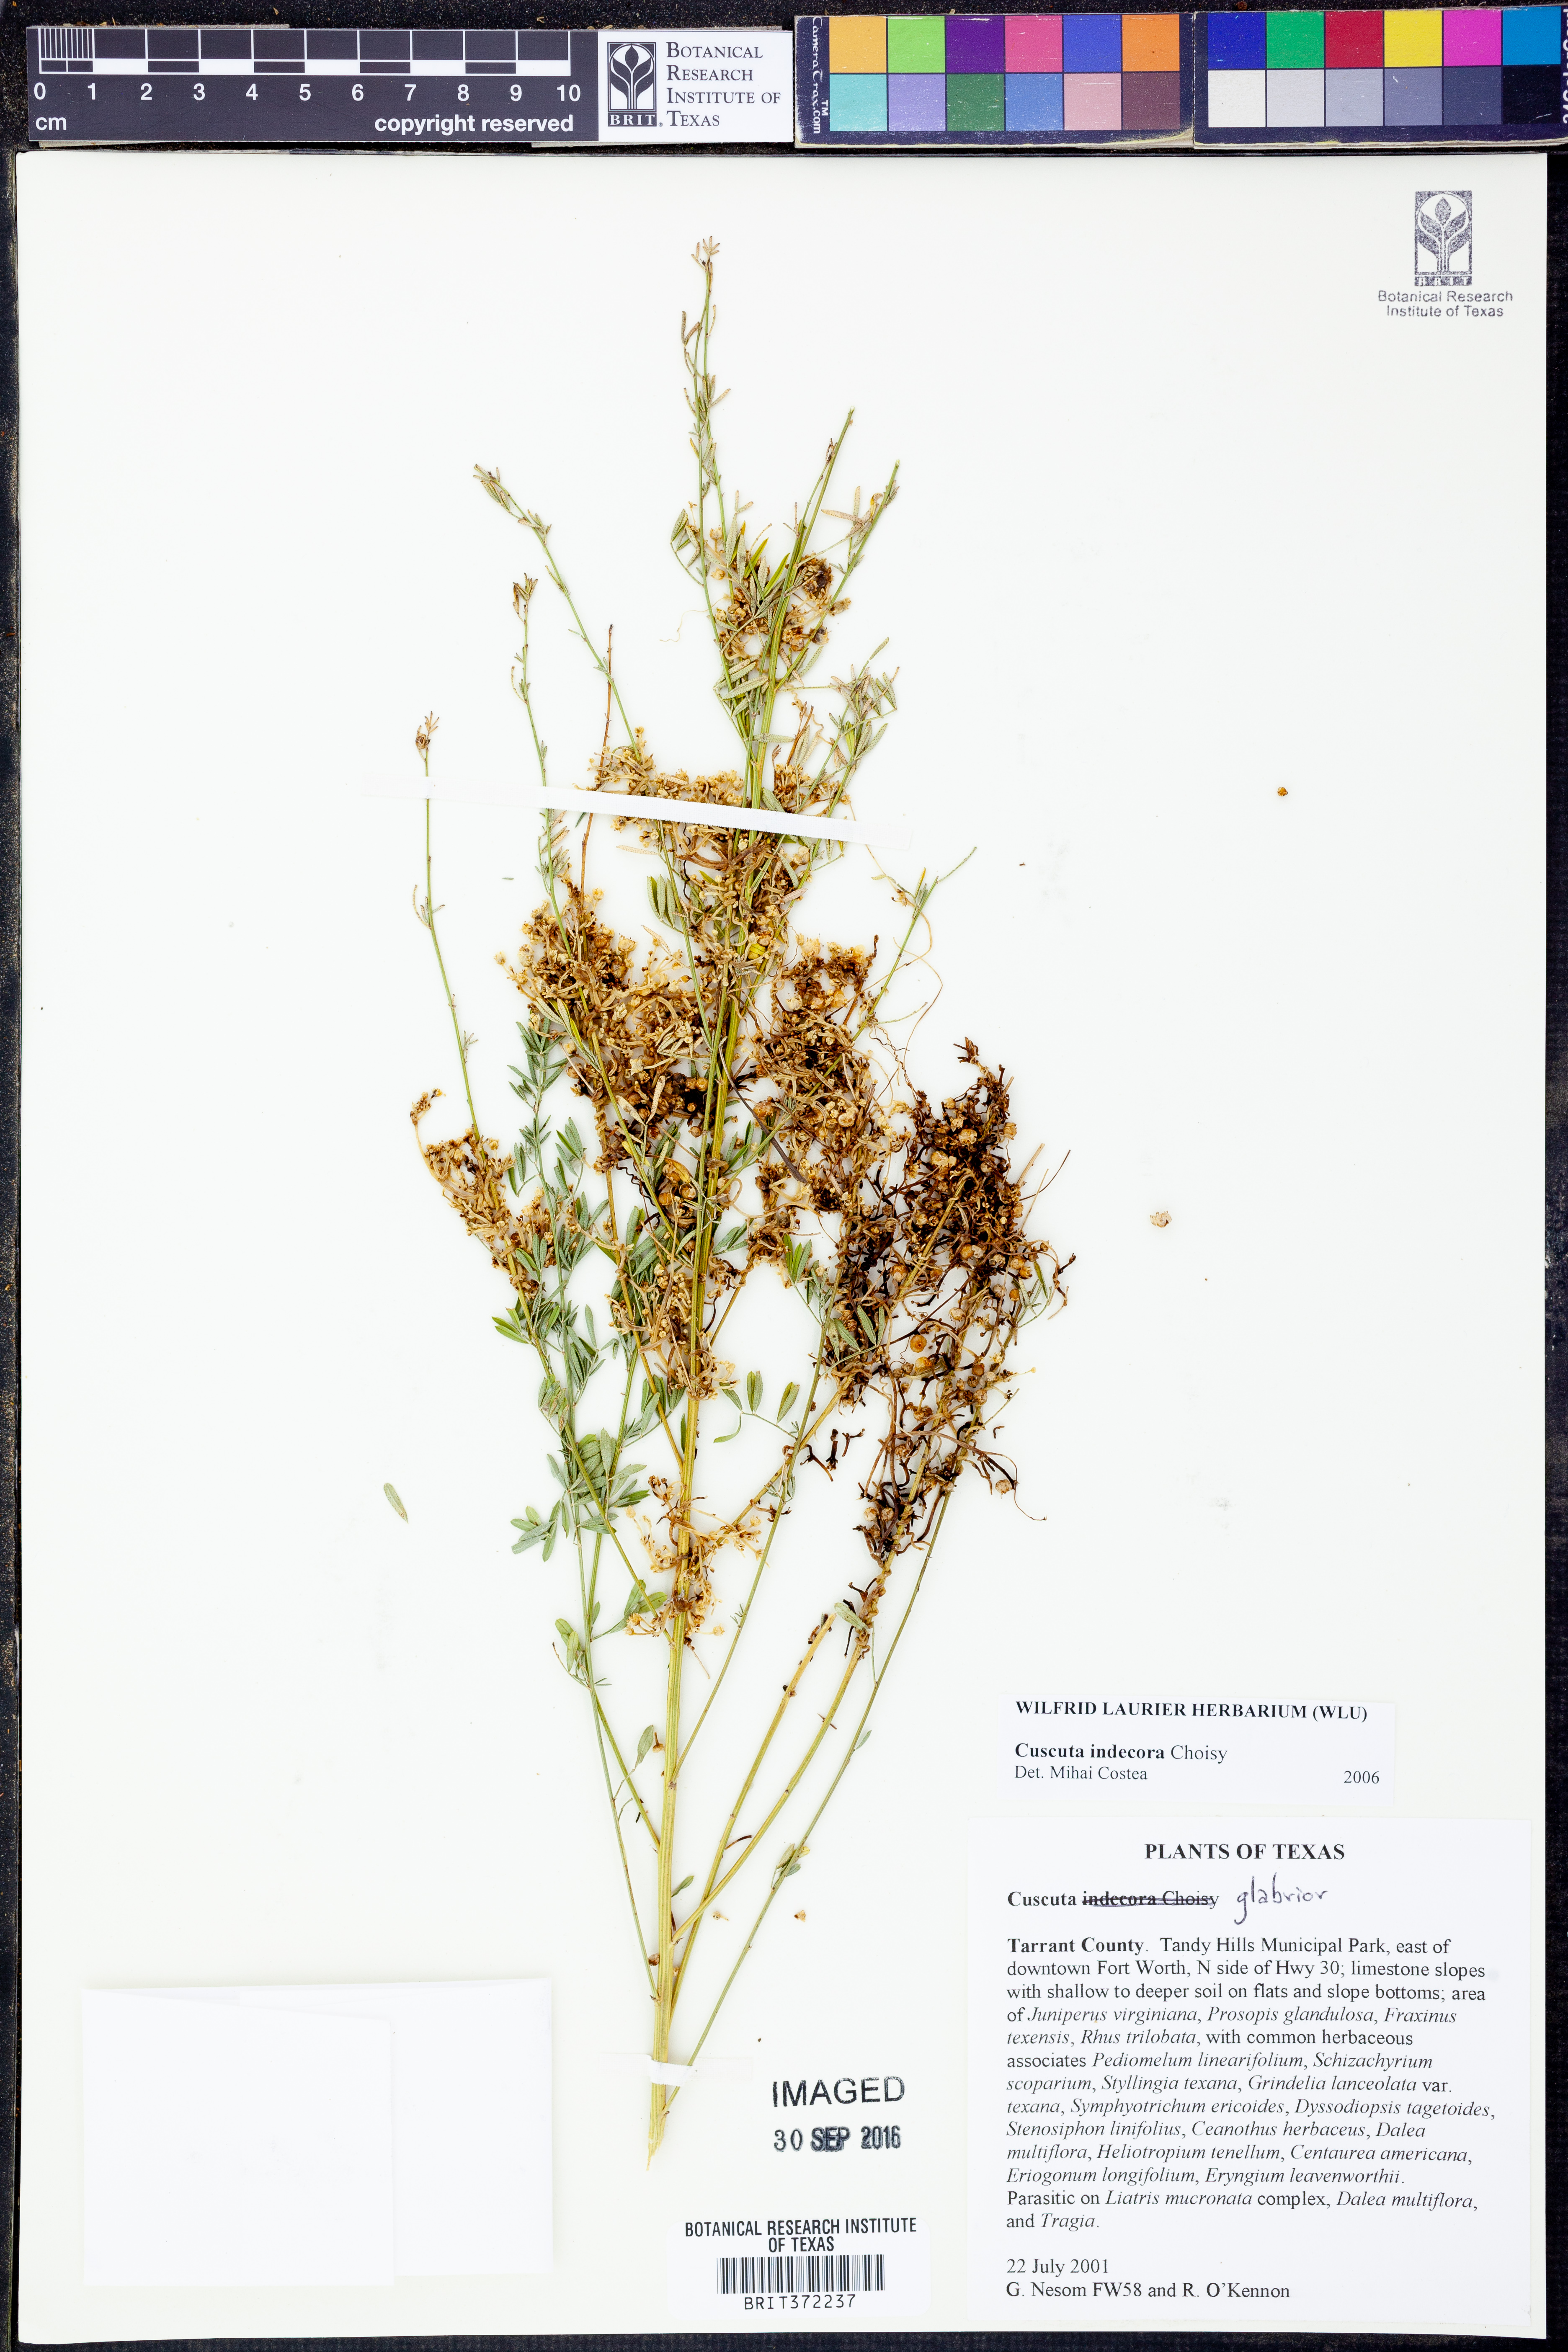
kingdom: Plantae
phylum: Tracheophyta
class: Magnoliopsida
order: Solanales
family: Convolvulaceae
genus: Cuscuta
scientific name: Cuscuta indecora
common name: Large-seed dodder
